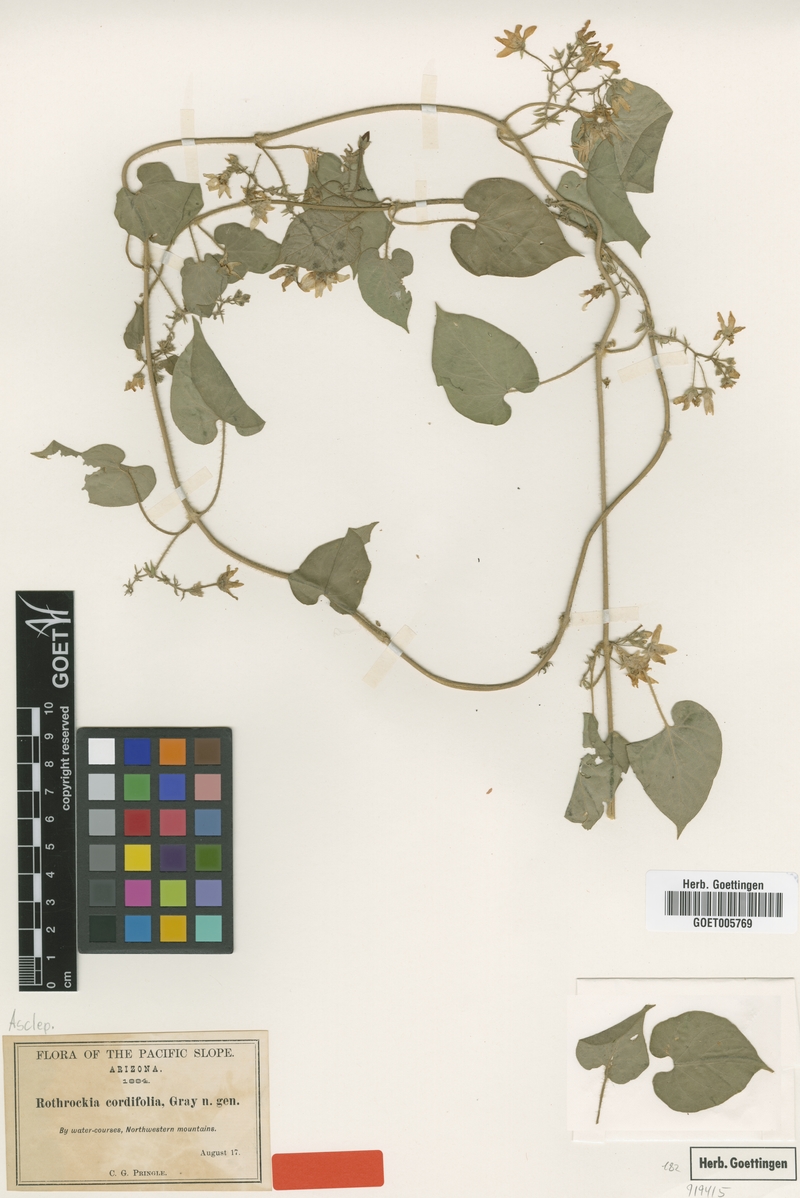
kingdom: Plantae
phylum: Tracheophyta
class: Magnoliopsida
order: Gentianales
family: Apocynaceae
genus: Polystemma
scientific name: Polystemma cordifolium
